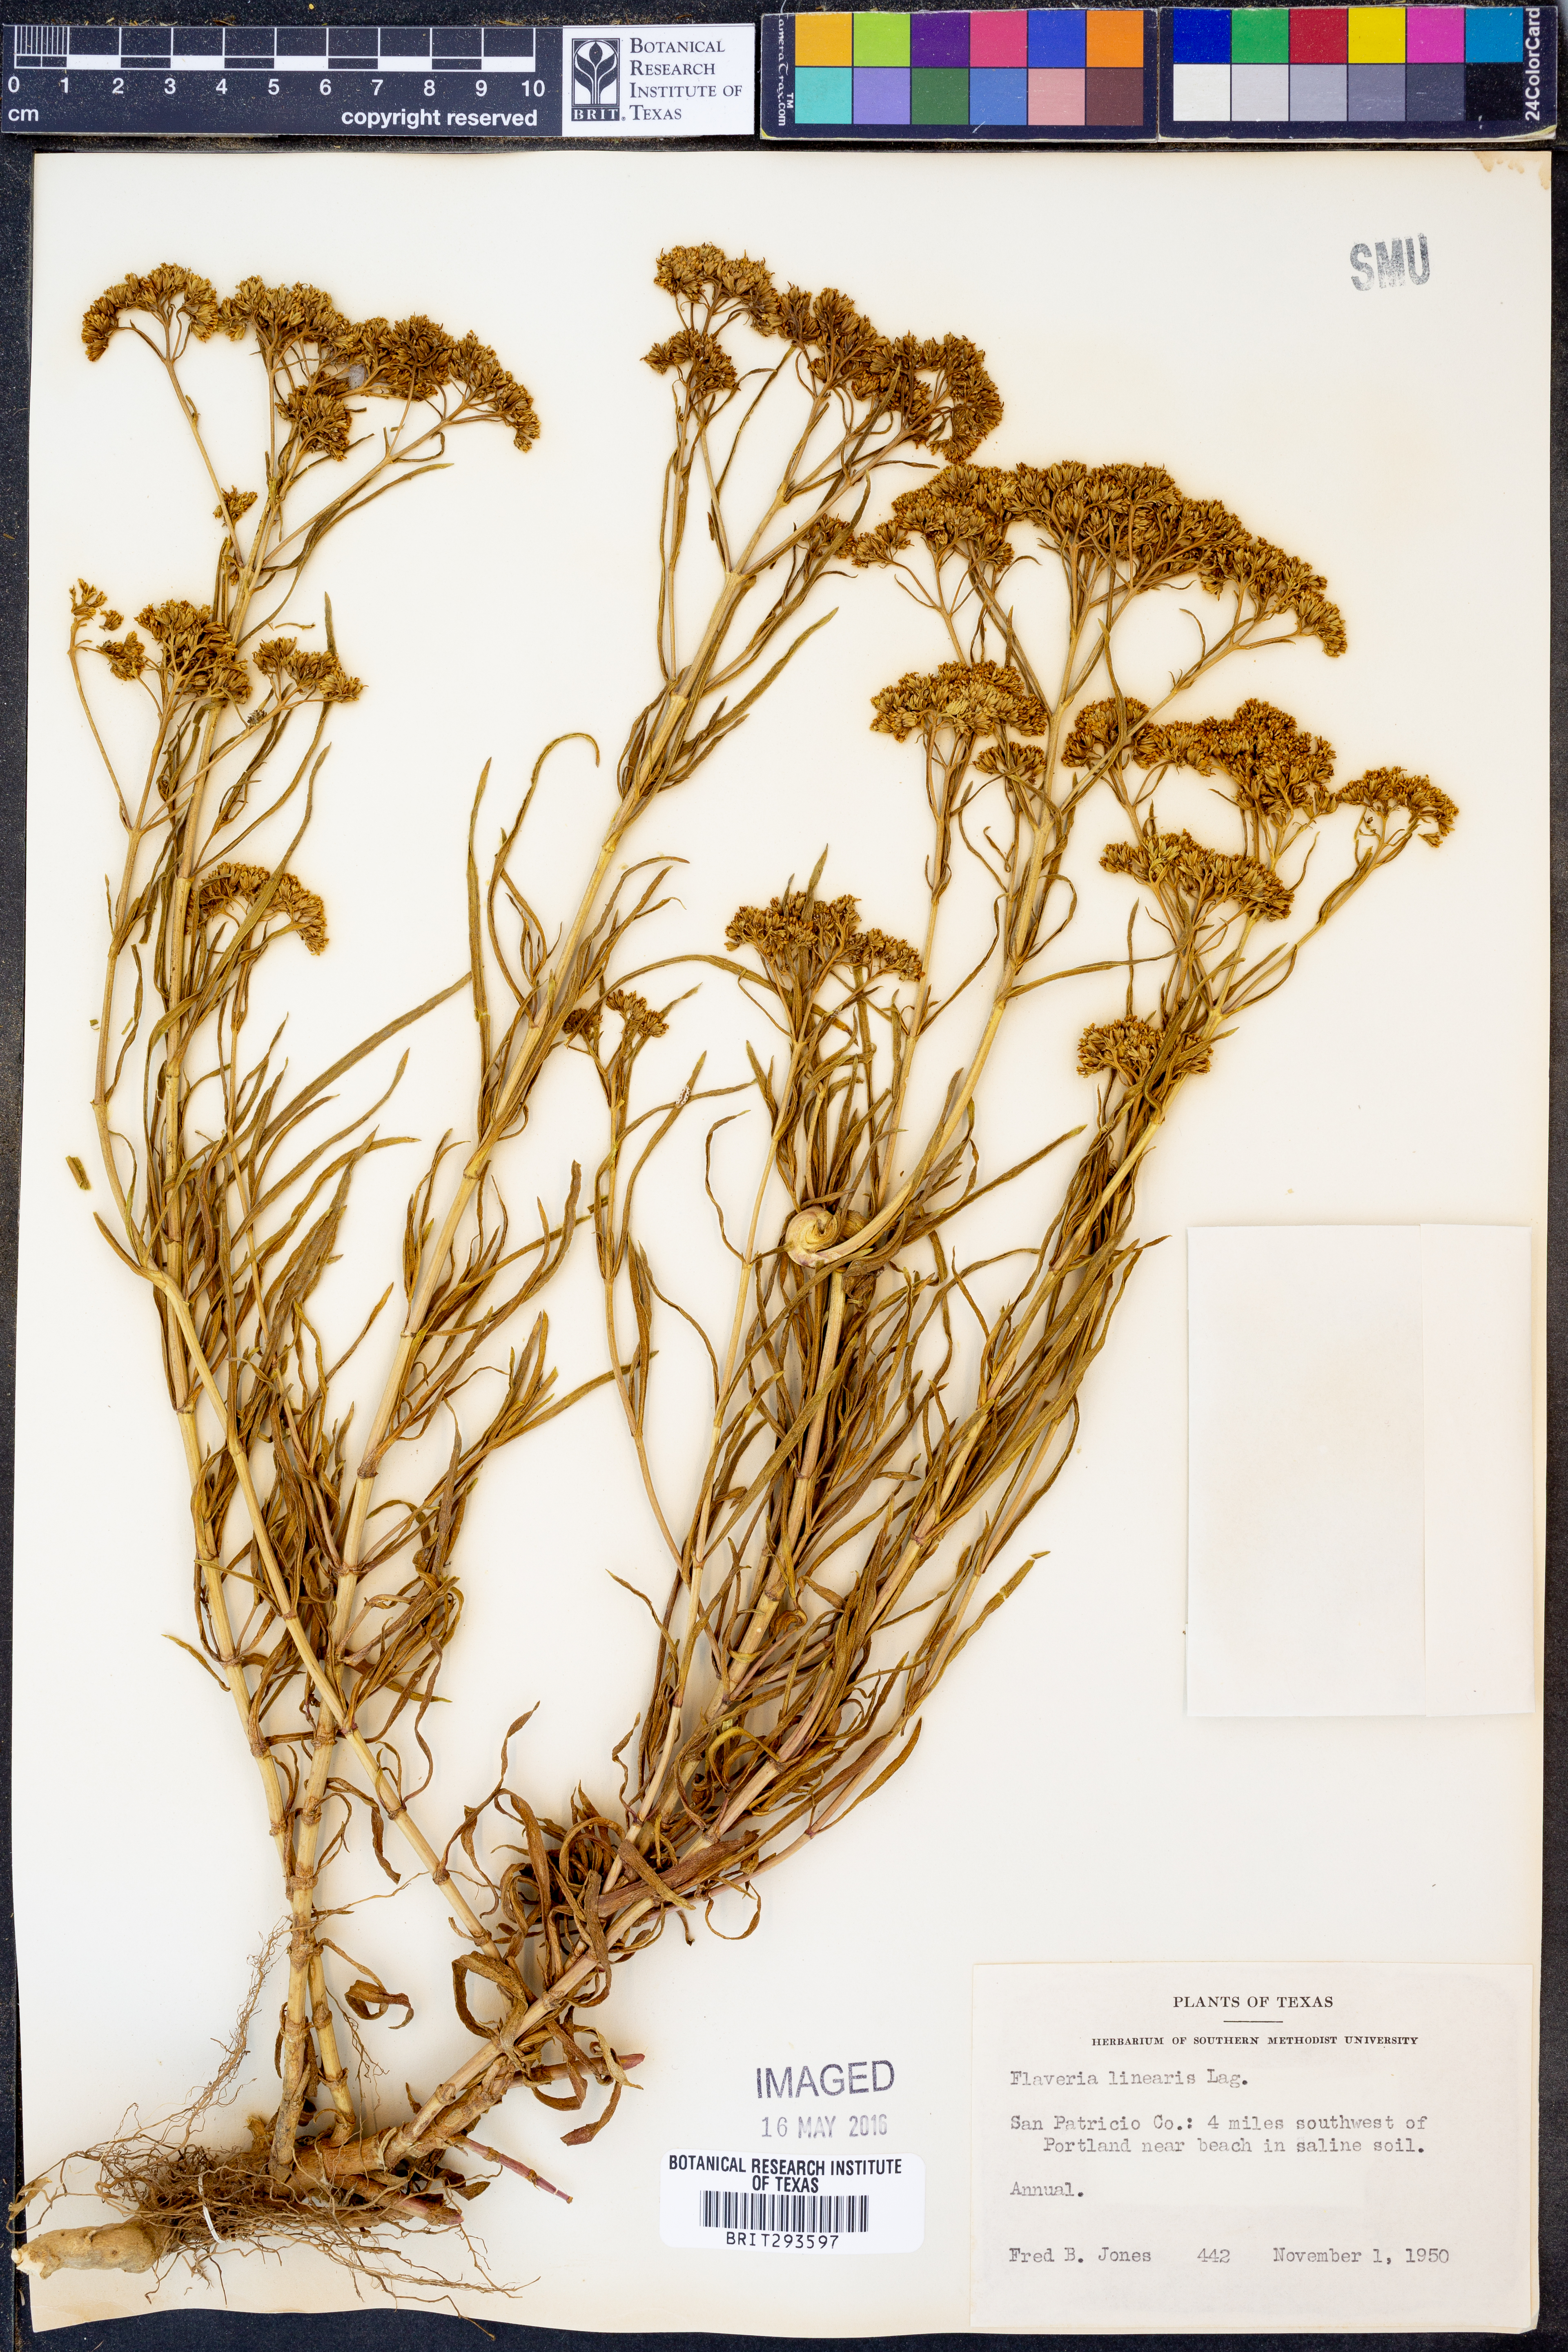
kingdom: Plantae
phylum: Tracheophyta
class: Magnoliopsida
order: Asterales
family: Asteraceae
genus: Flaveria
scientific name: Flaveria linearis
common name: Yellowtop
